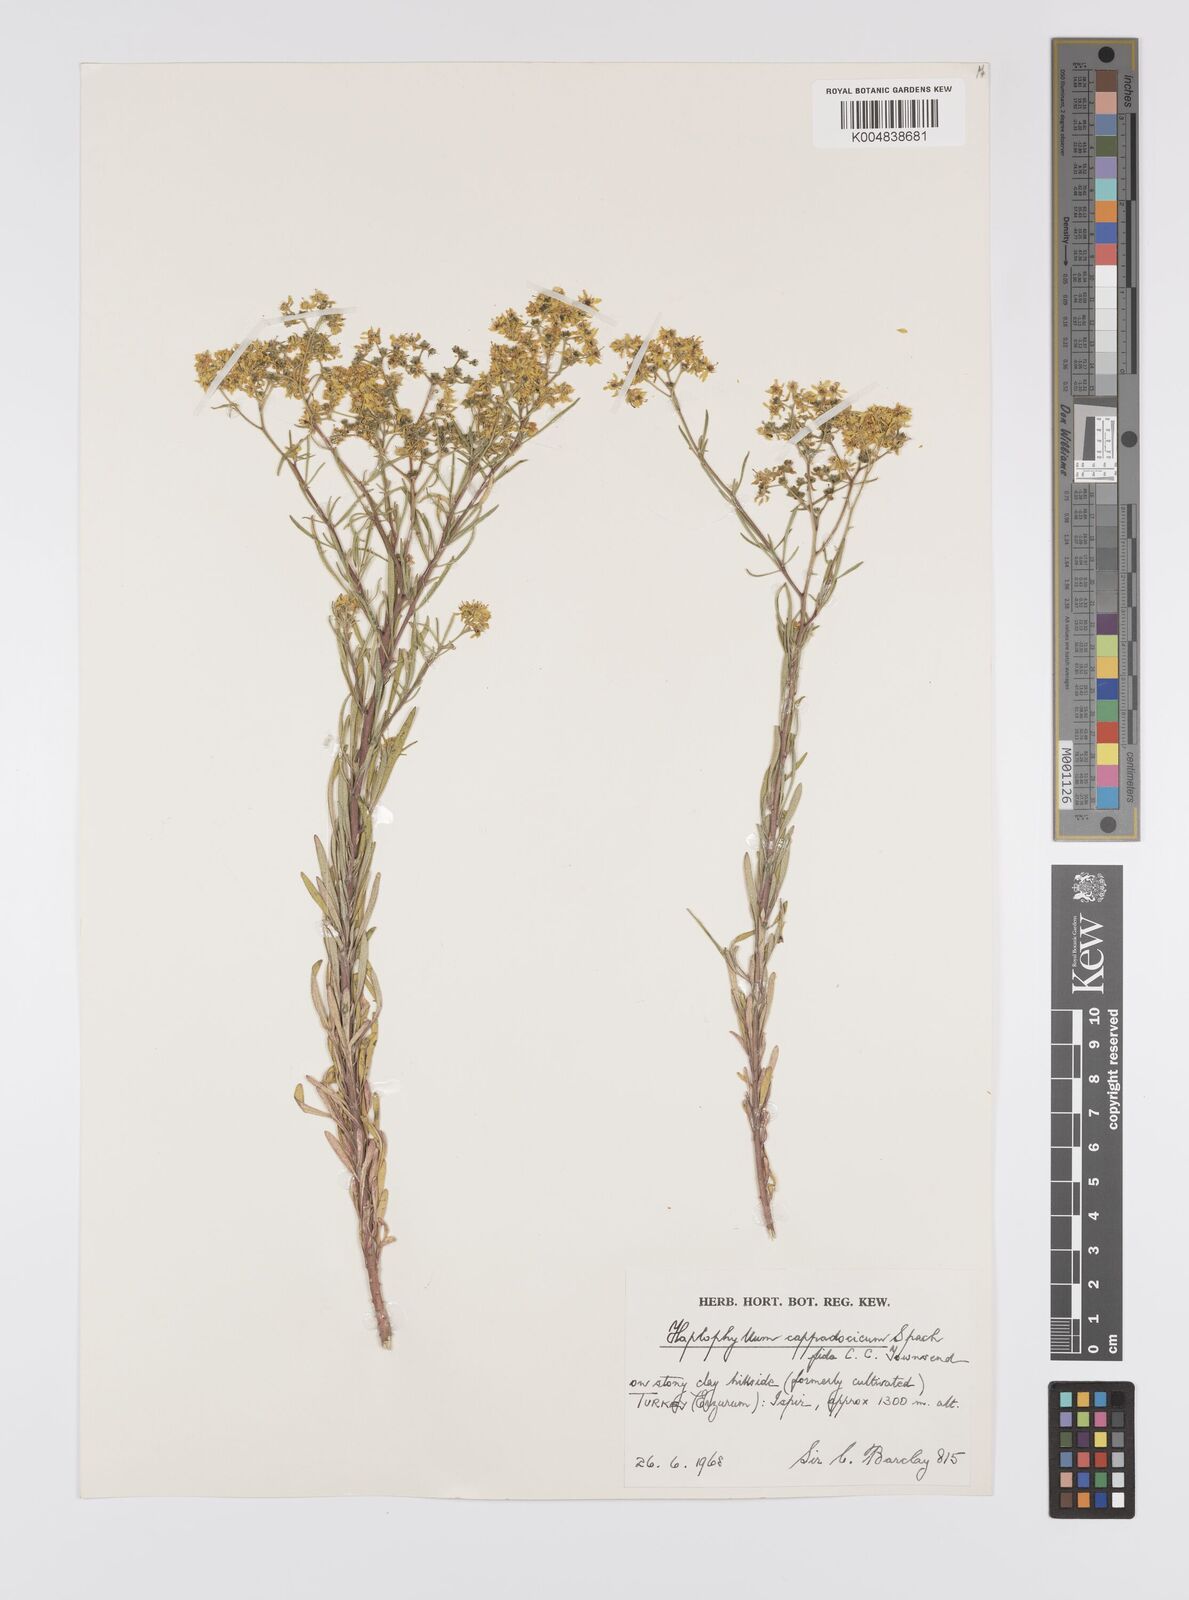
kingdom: Plantae
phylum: Tracheophyta
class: Magnoliopsida
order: Sapindales
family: Rutaceae
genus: Haplophyllum
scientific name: Haplophyllum cappadocicum
